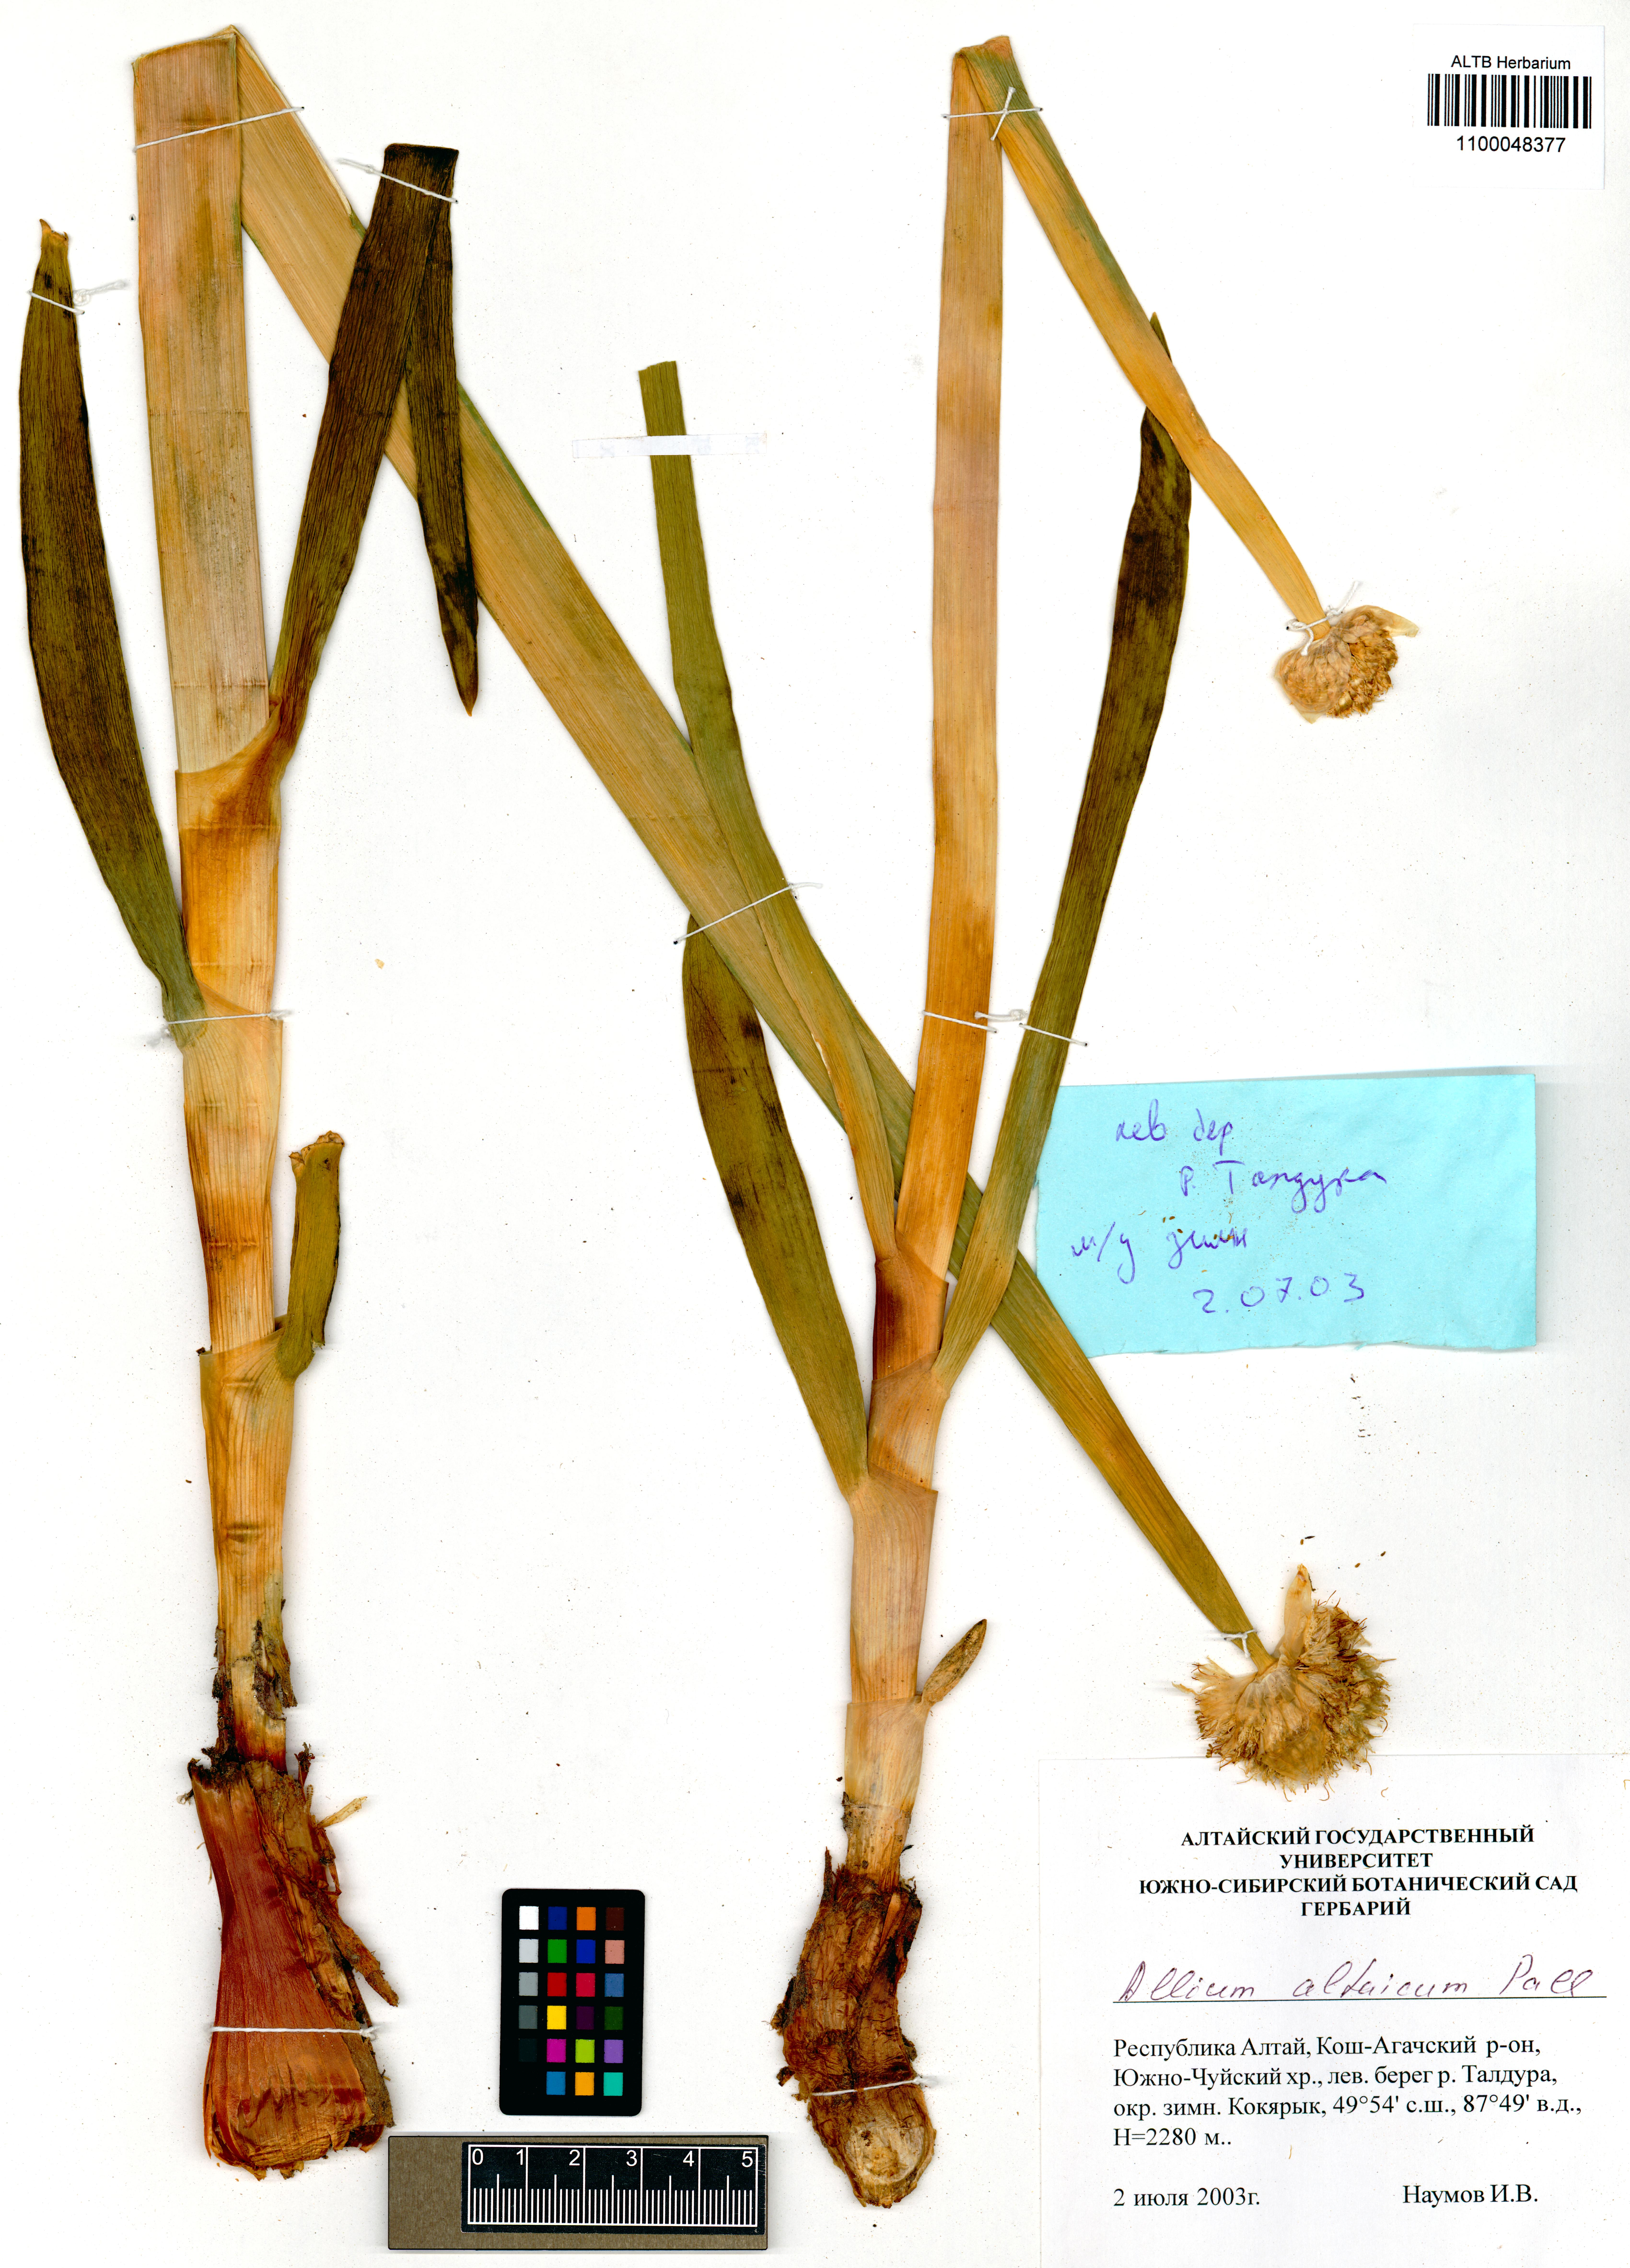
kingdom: Plantae
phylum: Tracheophyta
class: Liliopsida
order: Asparagales
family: Amaryllidaceae
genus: Allium
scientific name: Allium altaicum
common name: Altai onion
